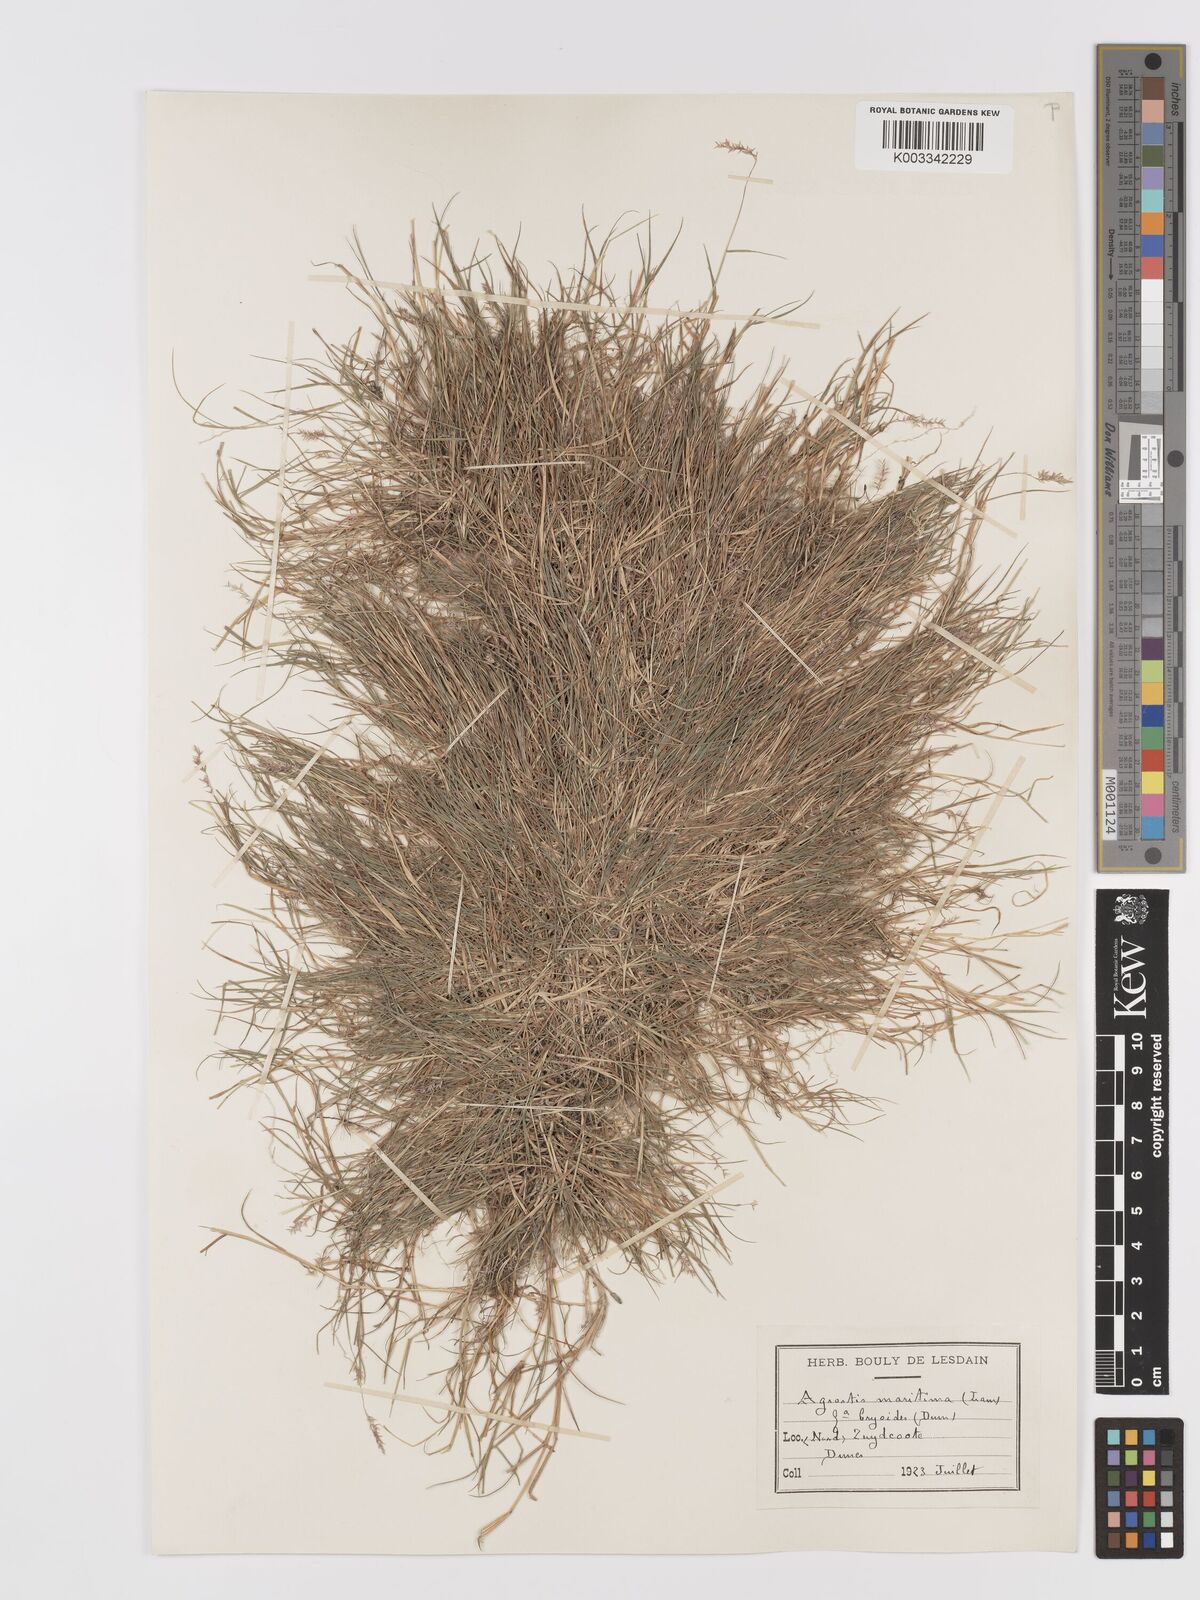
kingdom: Plantae
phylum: Tracheophyta
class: Liliopsida
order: Poales
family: Poaceae
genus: Agrostis
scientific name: Agrostis stolonifera
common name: Creeping bentgrass
